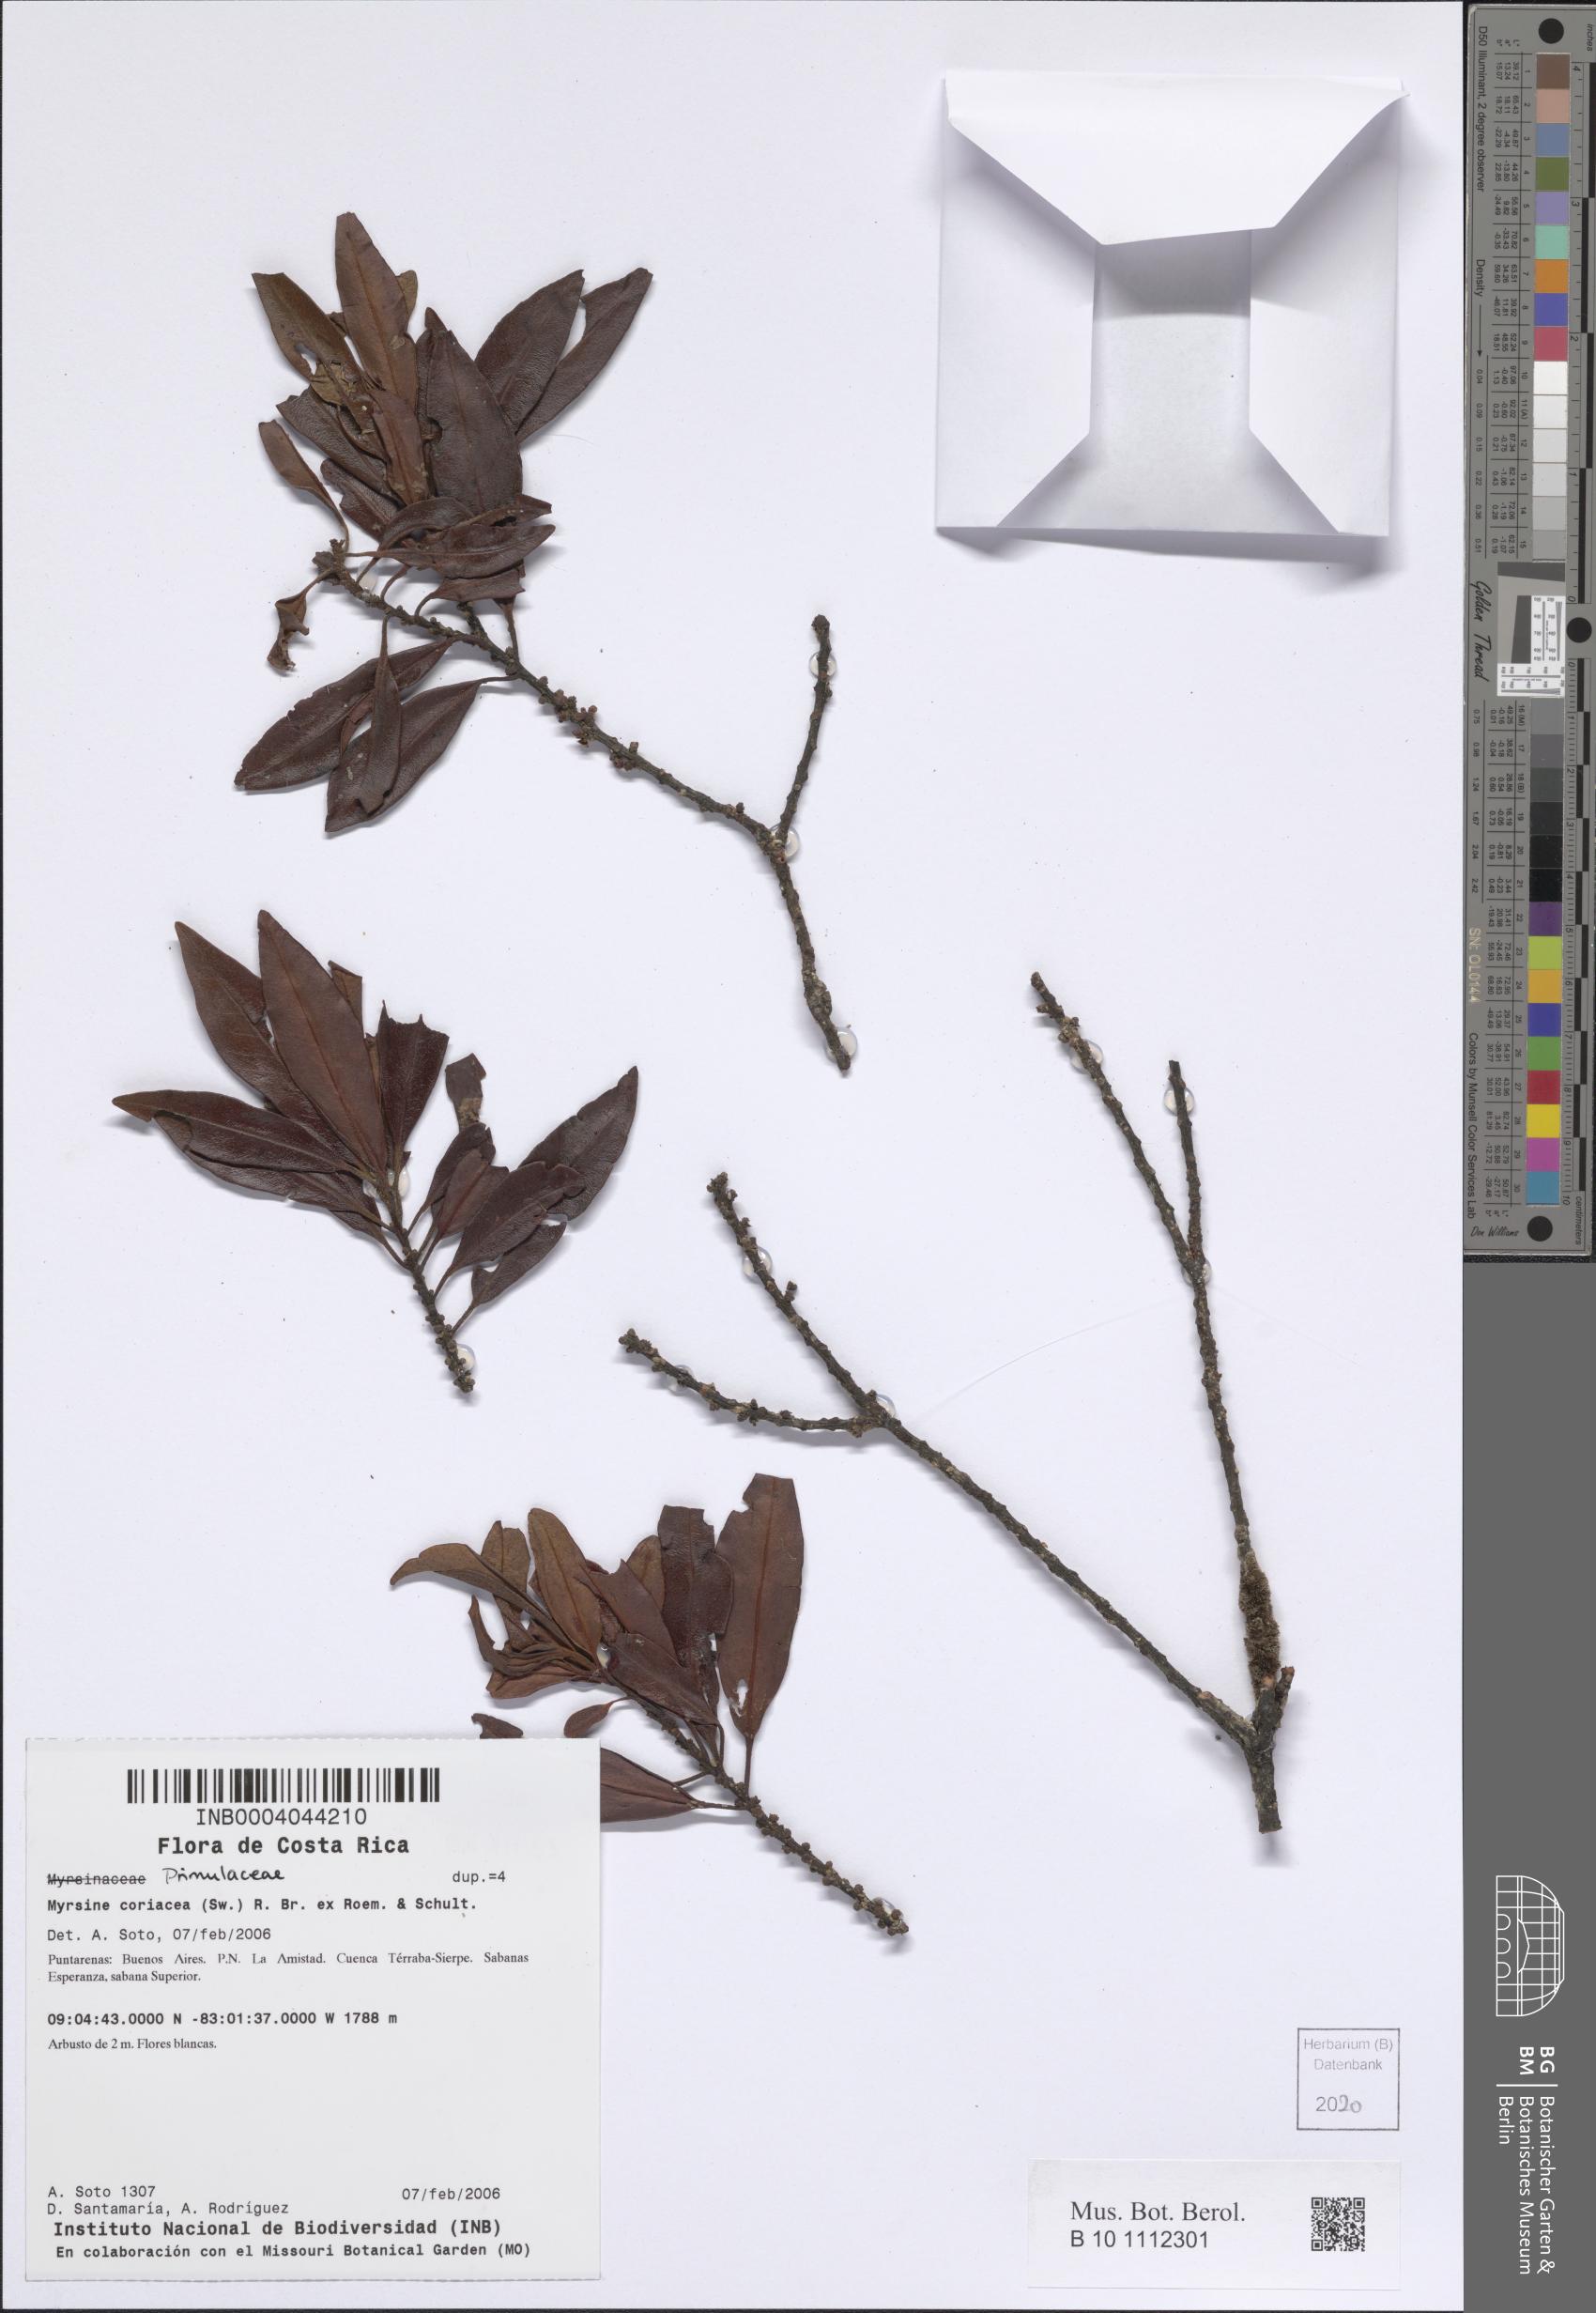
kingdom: Plantae
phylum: Tracheophyta
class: Magnoliopsida
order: Ericales
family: Primulaceae
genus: Myrsine
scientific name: Myrsine coriacea
